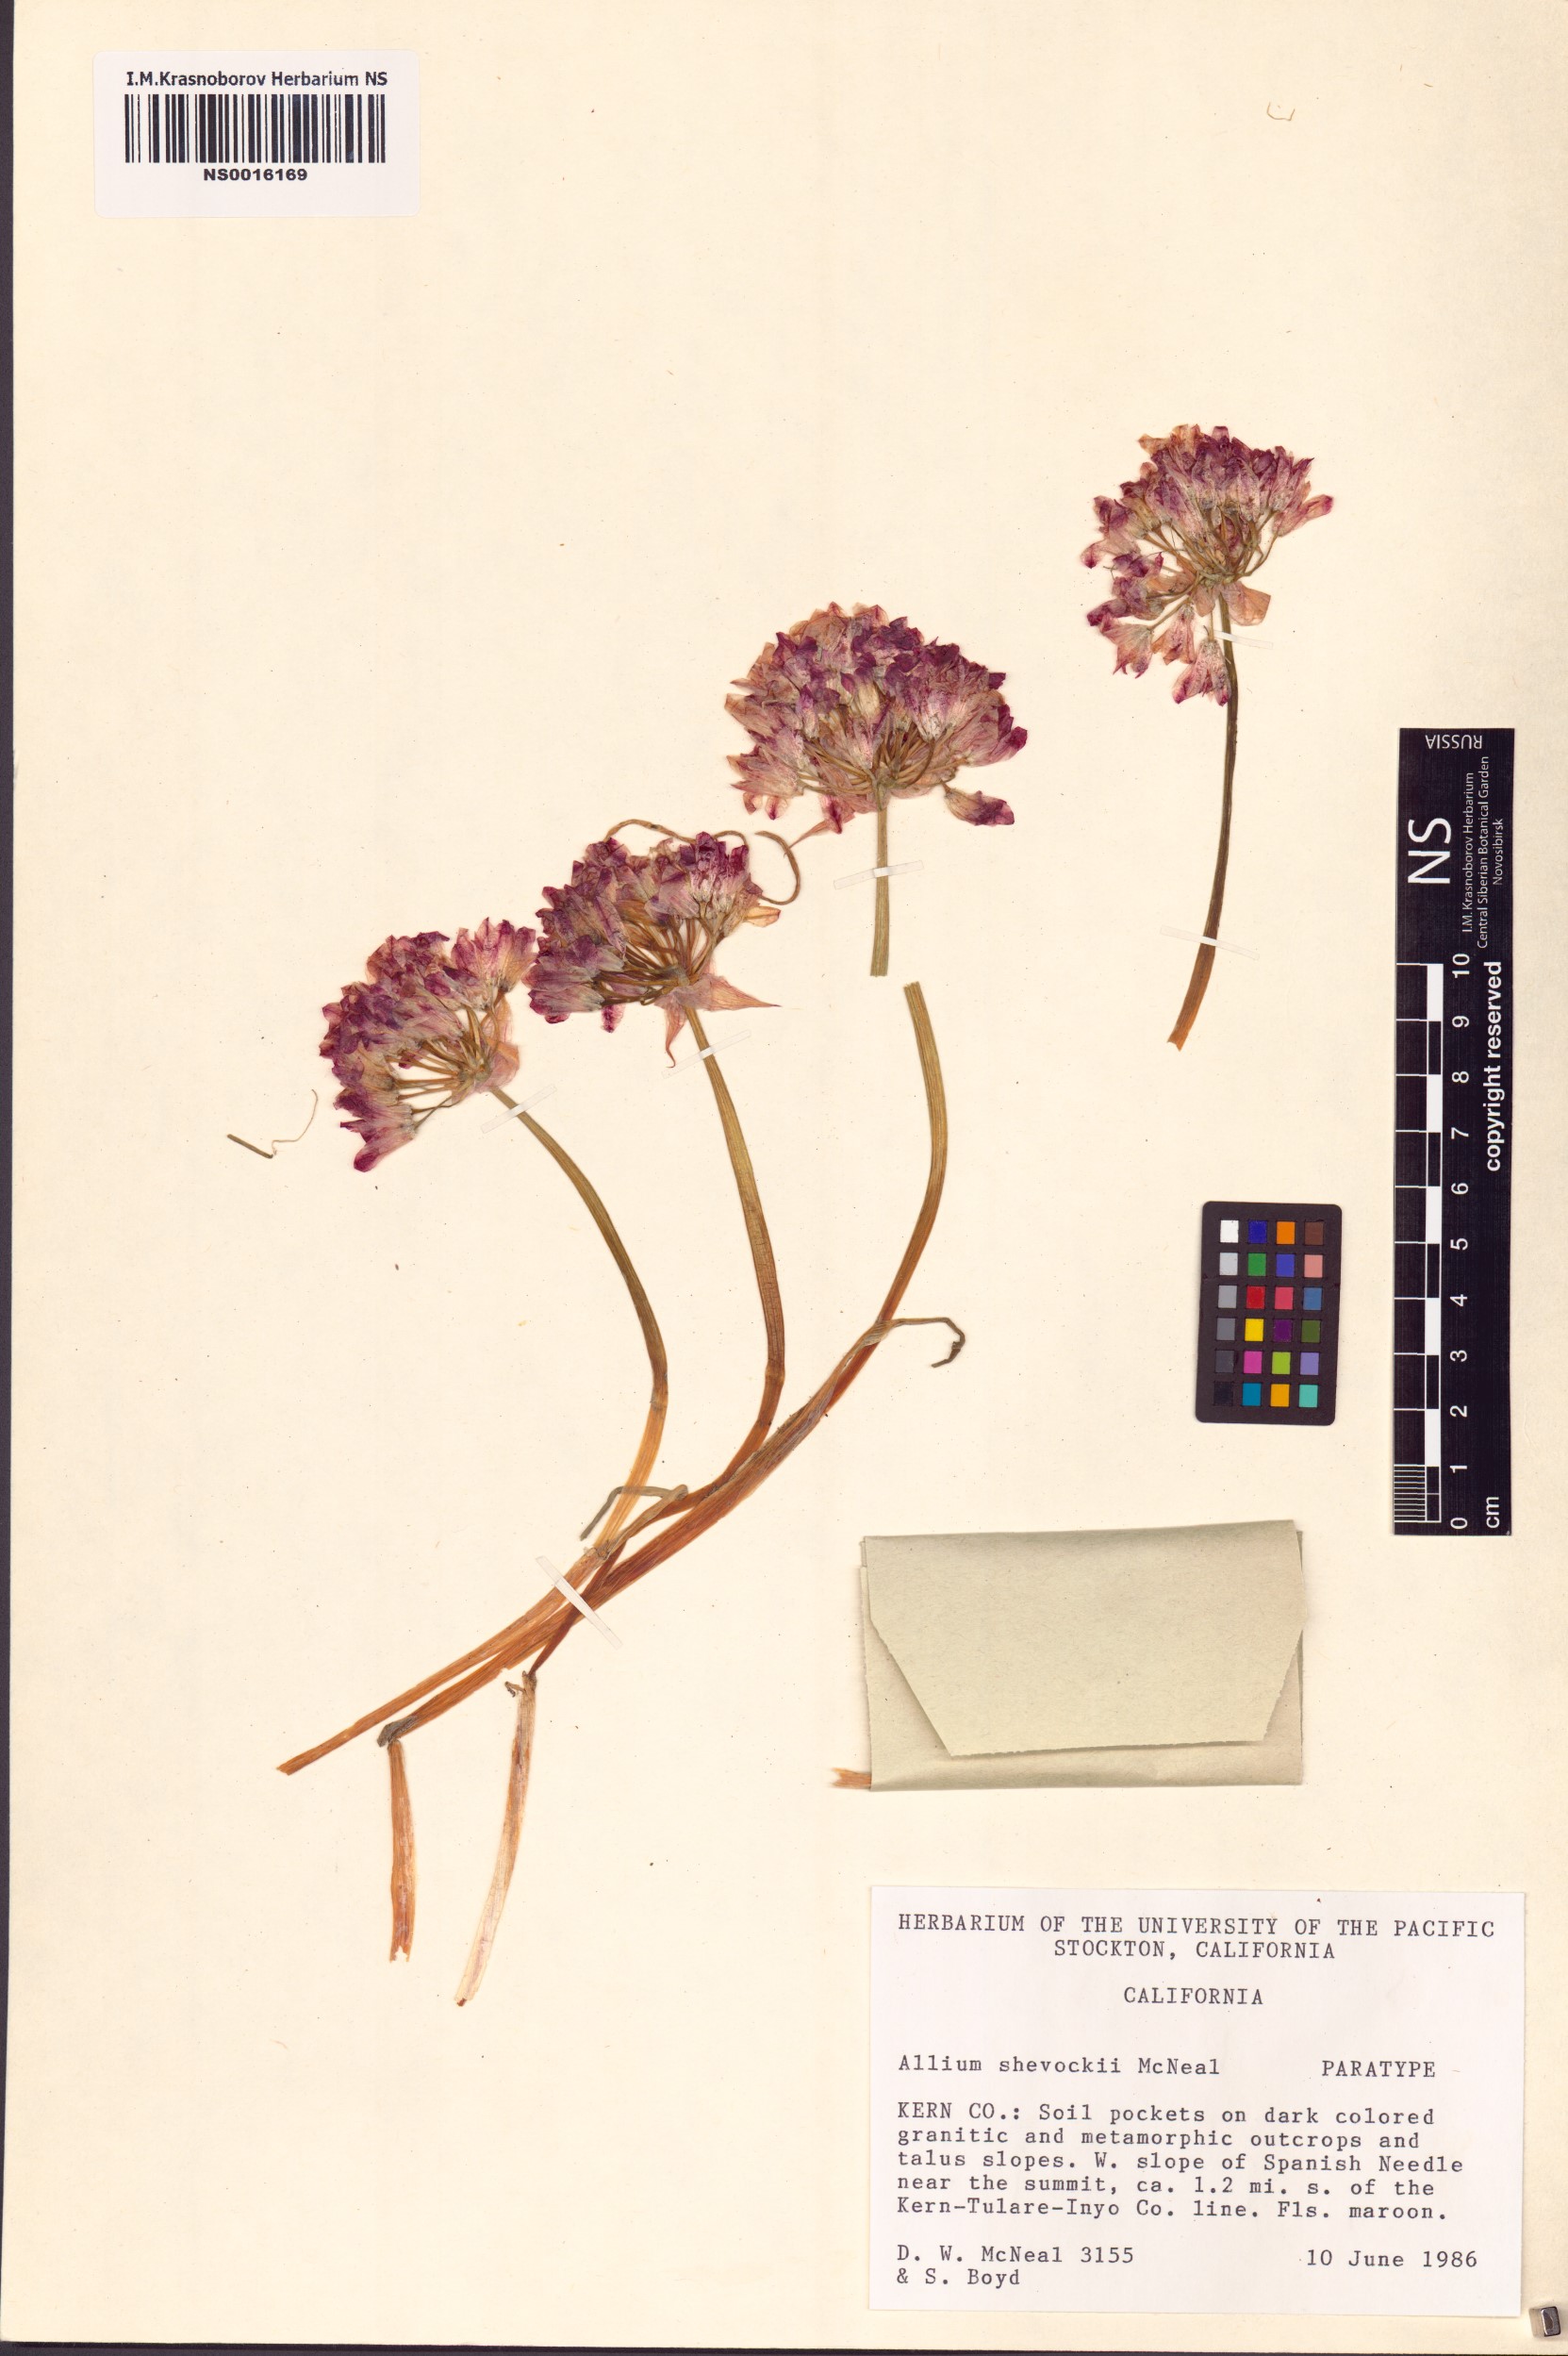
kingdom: Plantae
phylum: Tracheophyta
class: Liliopsida
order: Asparagales
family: Amaryllidaceae
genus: Allium
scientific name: Allium shevockii
